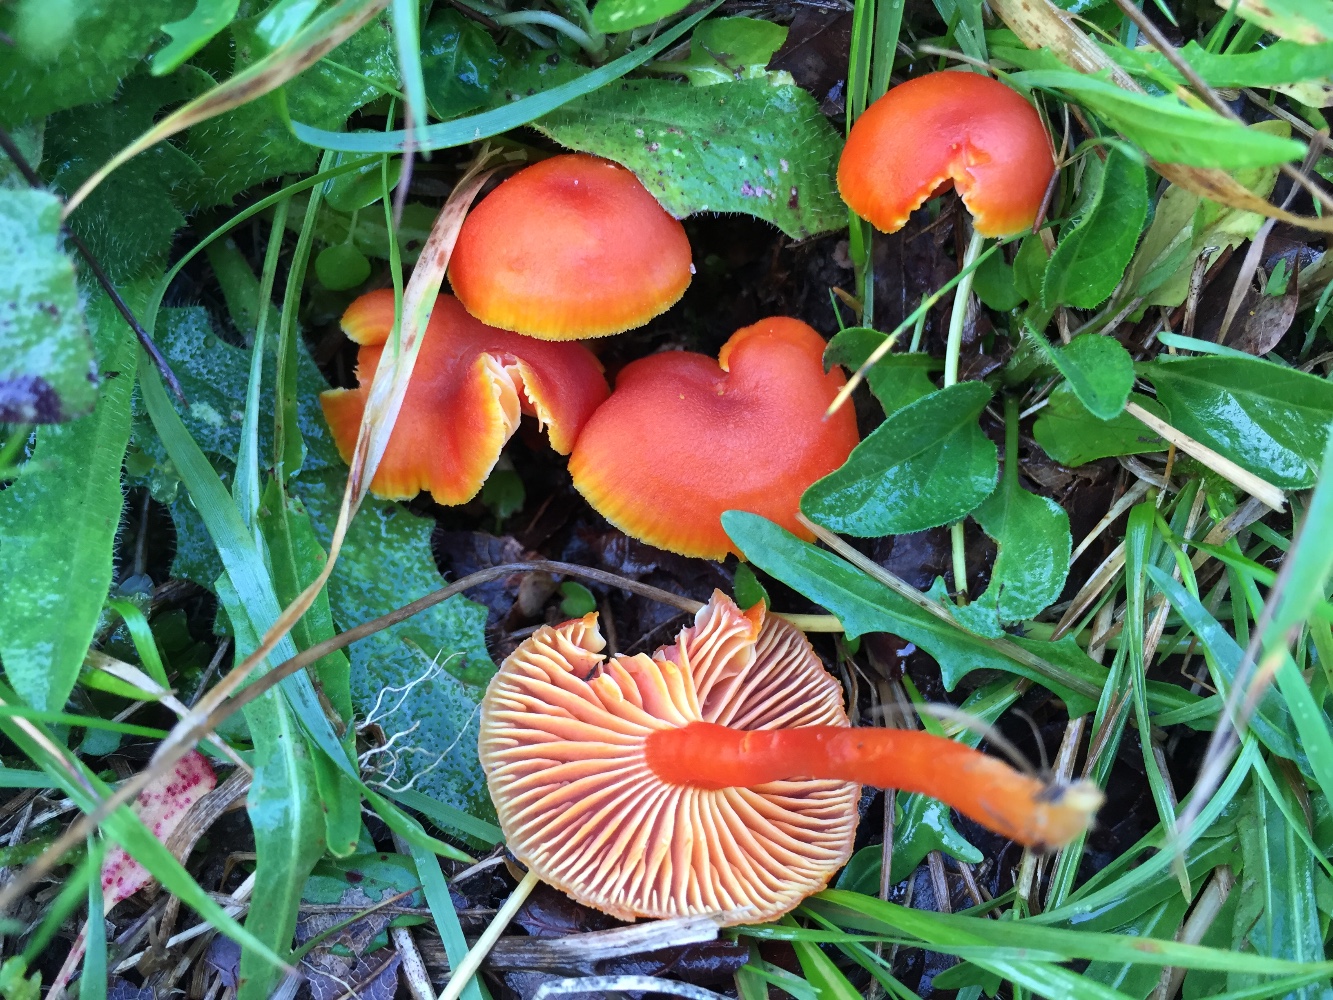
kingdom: Fungi
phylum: Basidiomycota
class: Agaricomycetes
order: Agaricales
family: Hygrophoraceae
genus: Hygrocybe
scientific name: Hygrocybe miniata
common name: mønje-vokshat
